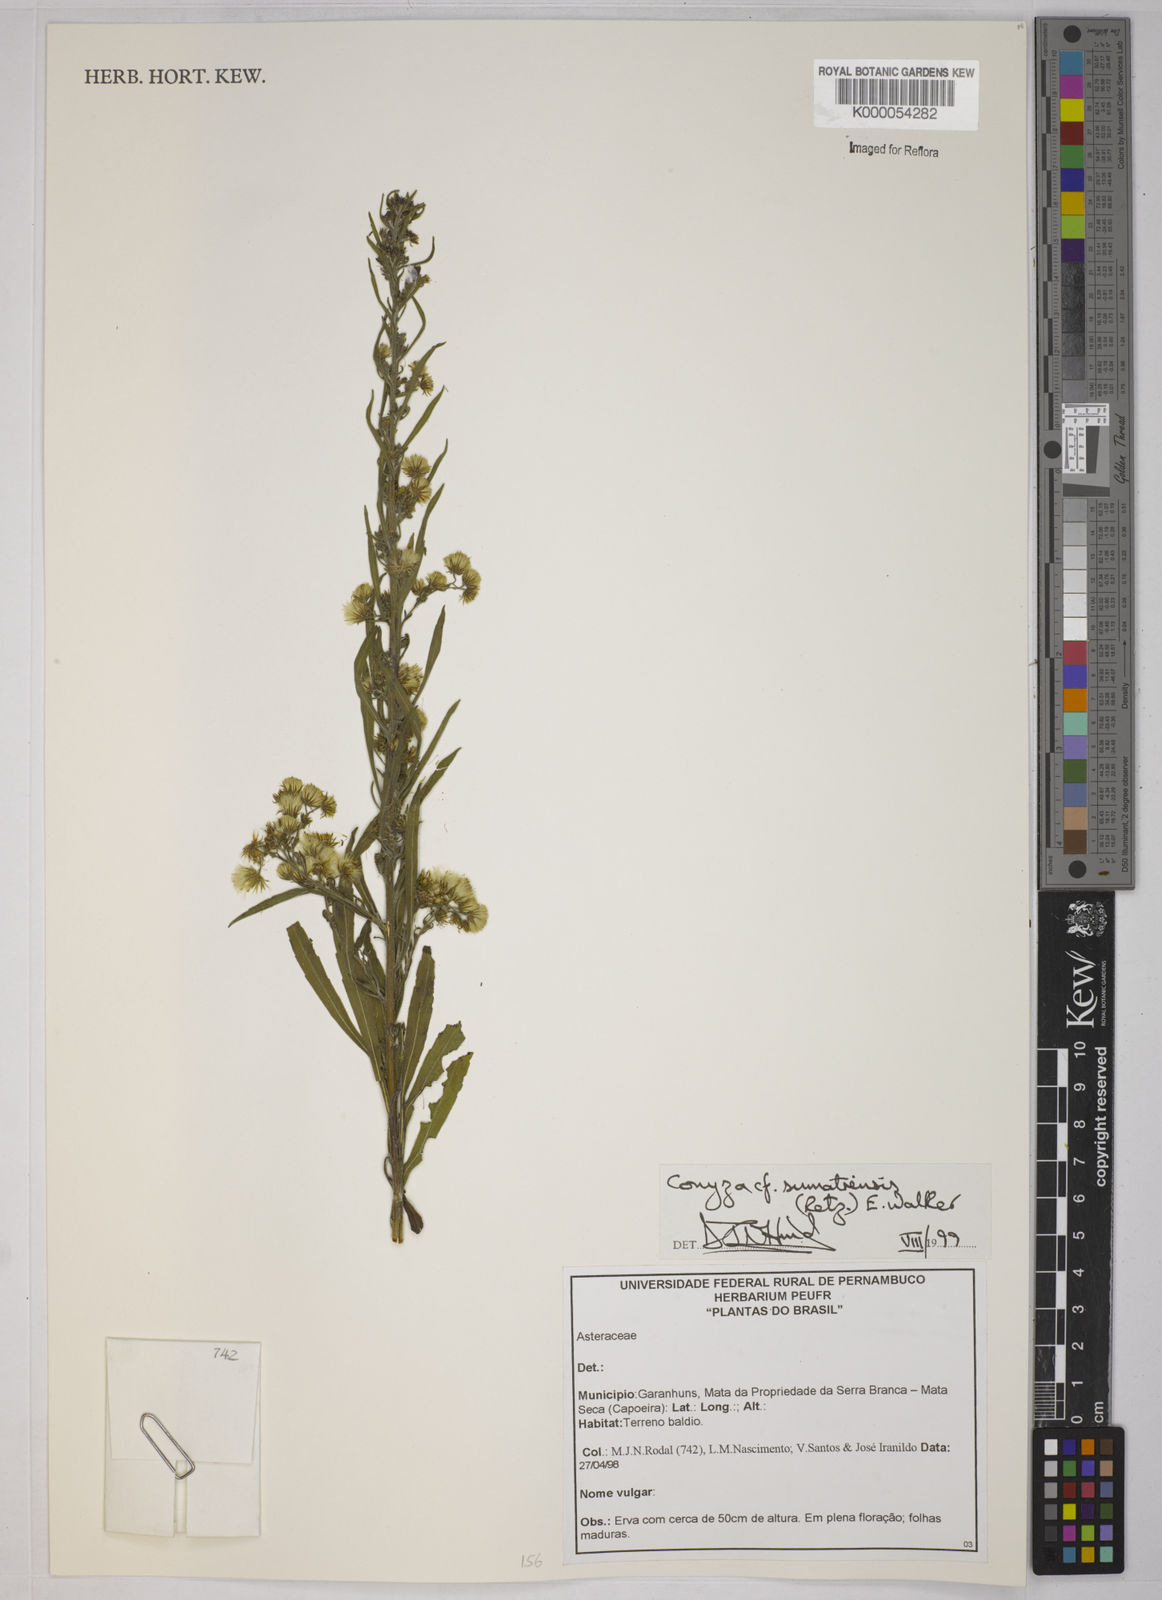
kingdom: Plantae
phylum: Tracheophyta
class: Magnoliopsida
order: Asterales
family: Asteraceae
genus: Erigeron
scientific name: Erigeron sumatrensis
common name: Daisy
